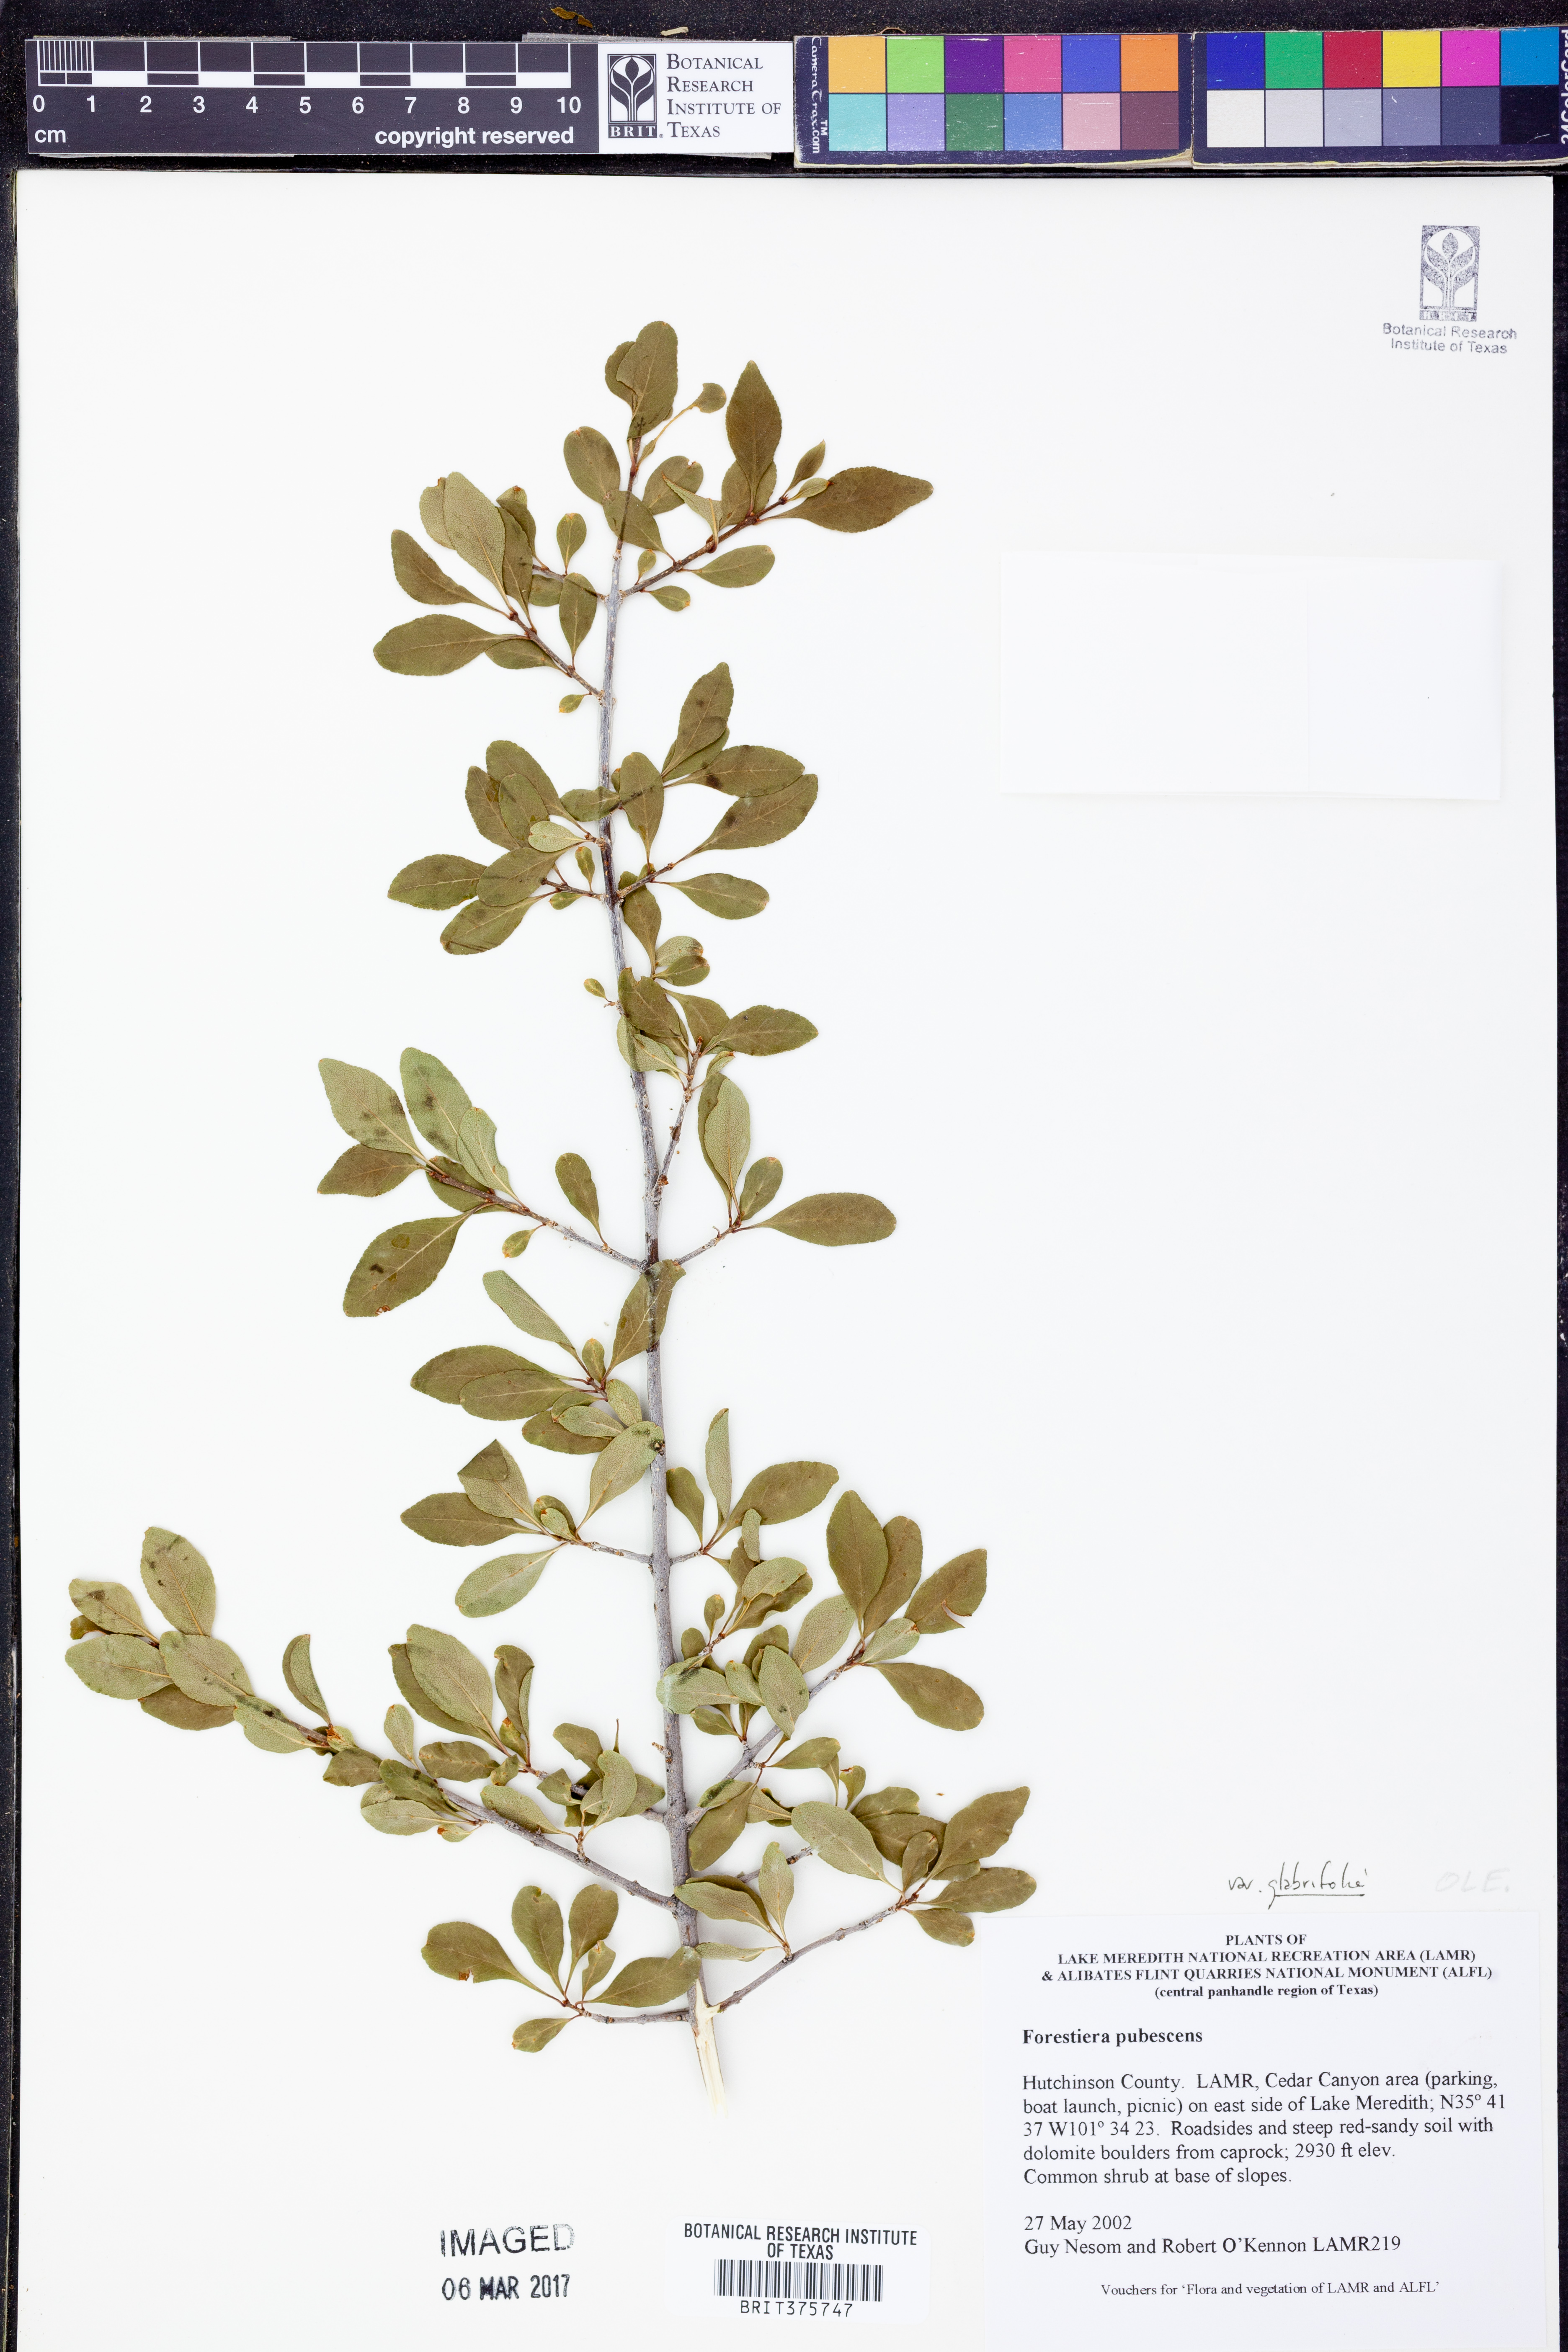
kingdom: Plantae
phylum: Tracheophyta
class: Magnoliopsida
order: Lamiales
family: Oleaceae
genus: Forestiera
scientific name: Forestiera pubescens
